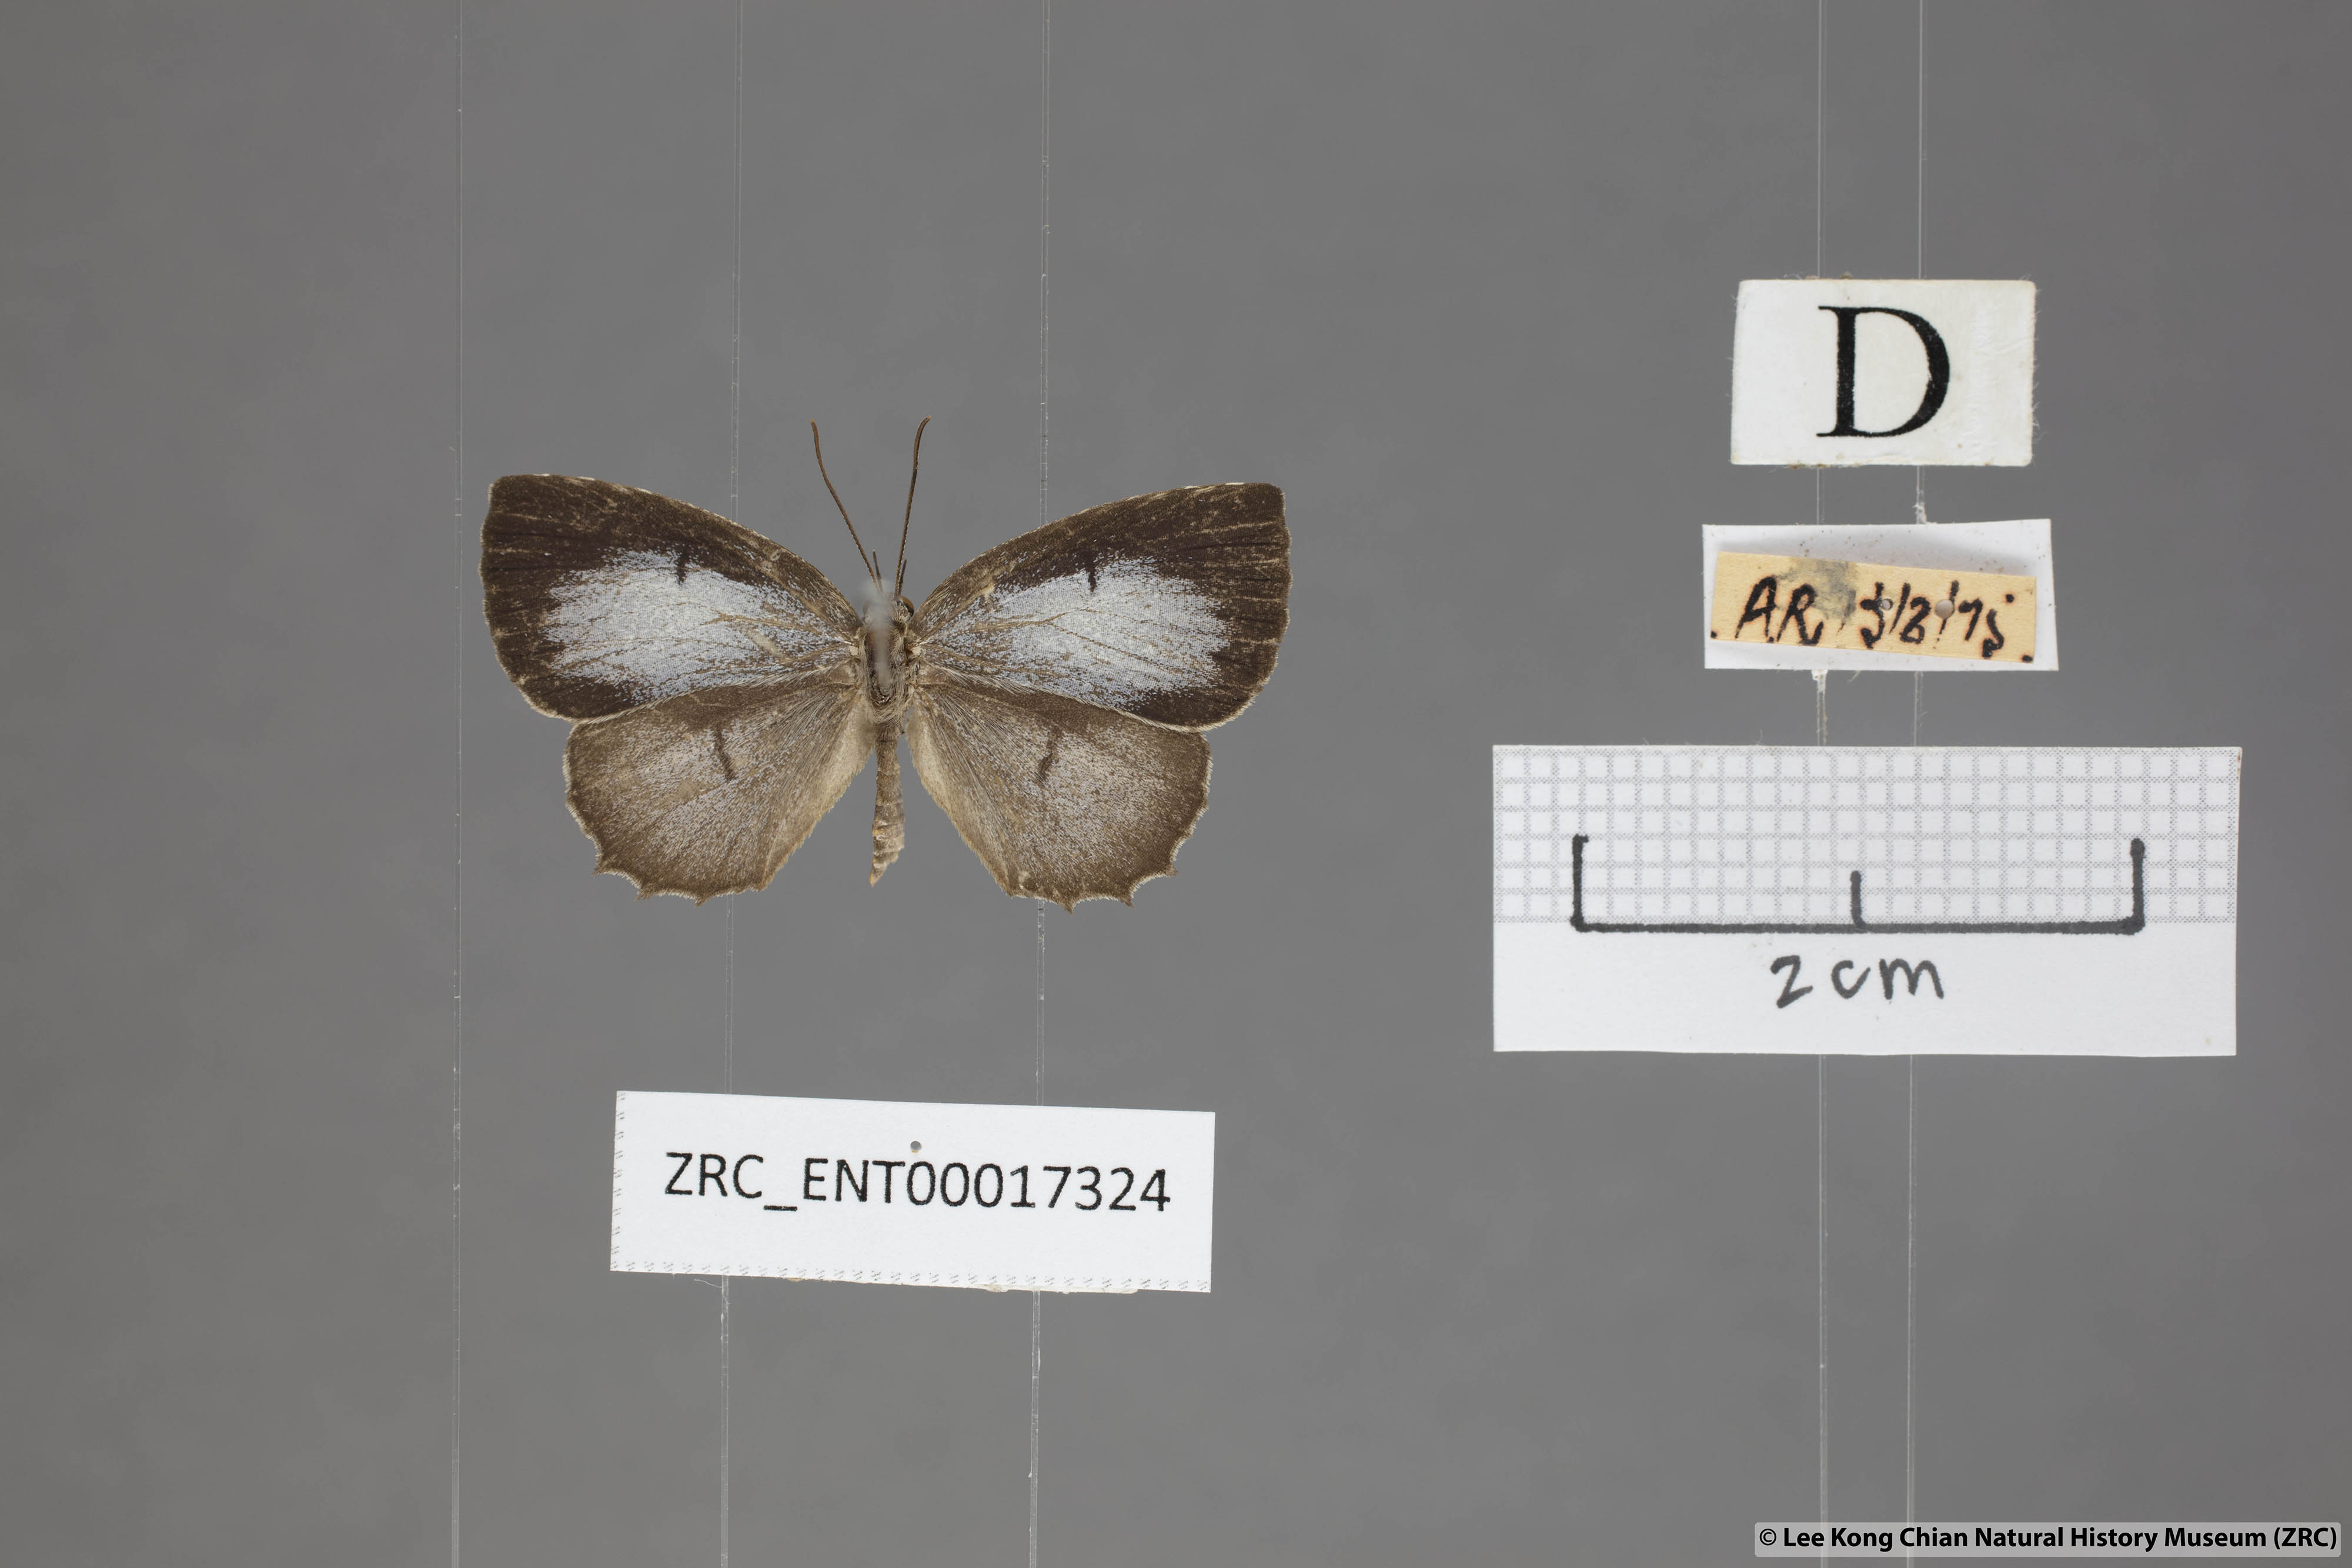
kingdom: Animalia
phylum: Arthropoda
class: Insecta
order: Lepidoptera
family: Lycaenidae
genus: Allotinus
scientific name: Allotinus subviolaceus
